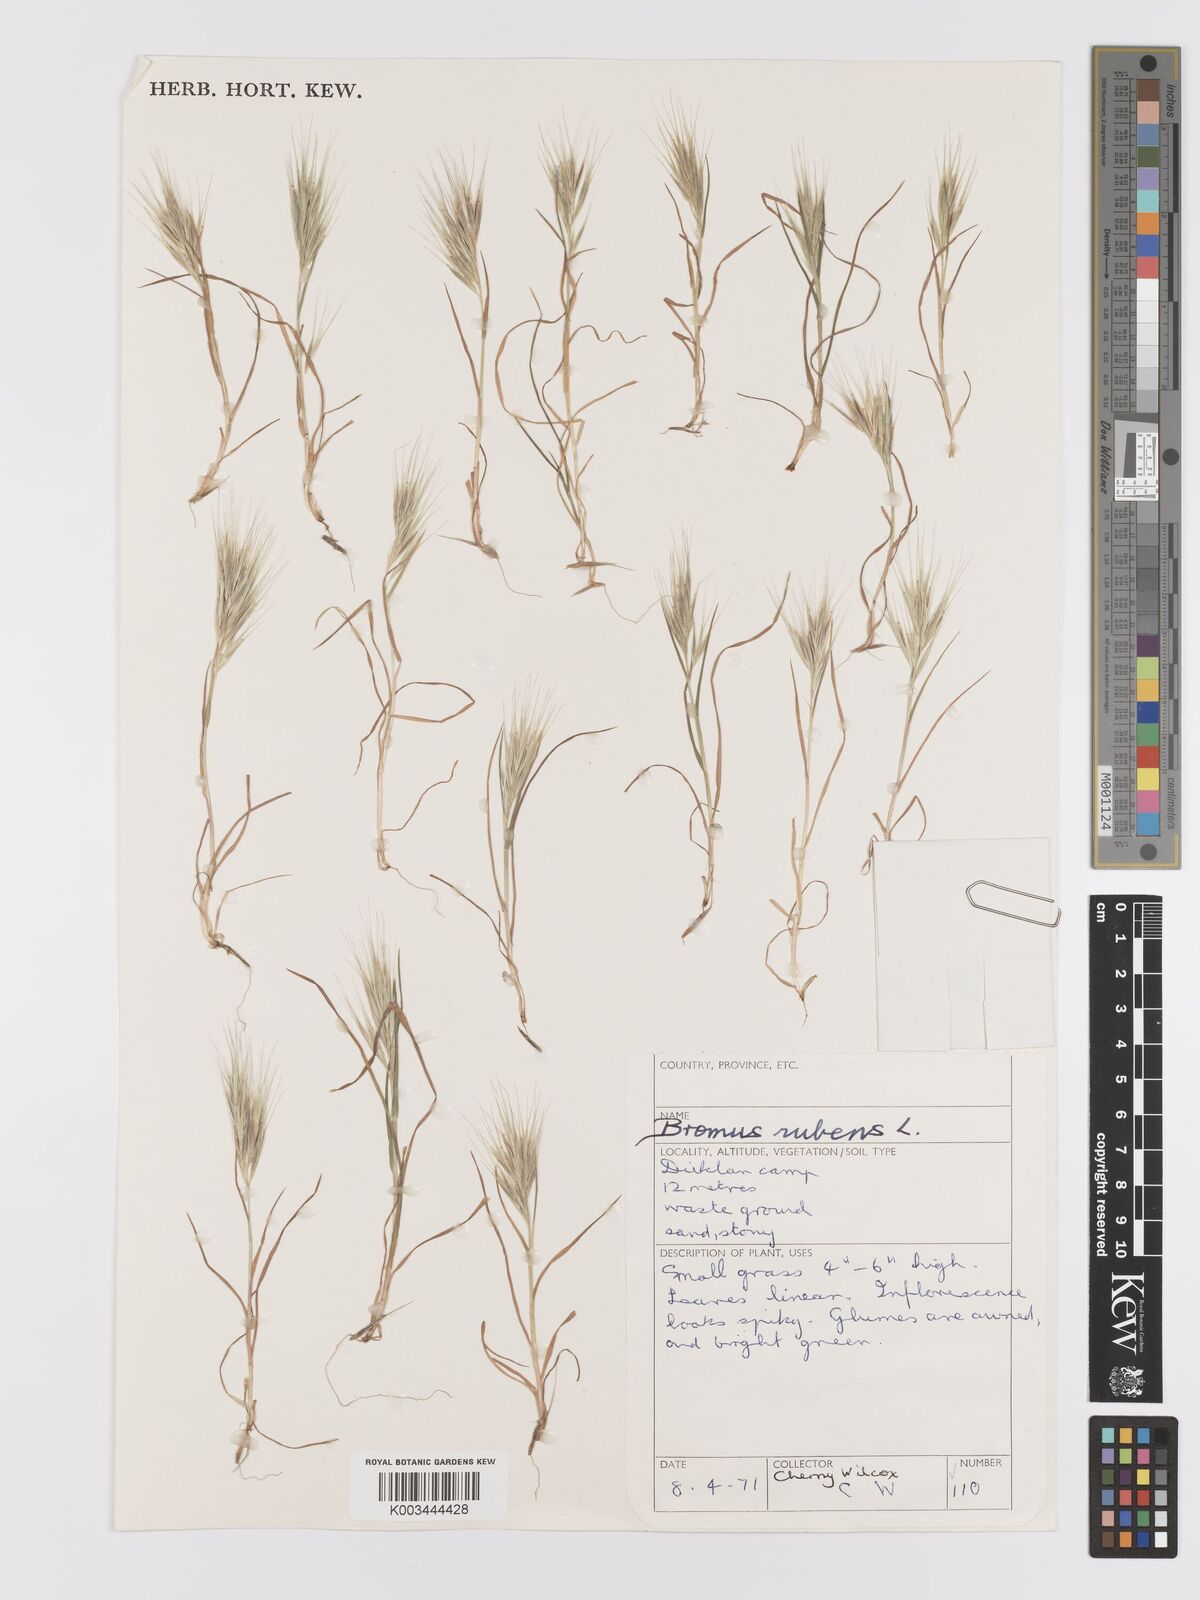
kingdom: Plantae
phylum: Tracheophyta
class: Liliopsida
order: Poales
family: Poaceae
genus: Bromus
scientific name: Bromus rubens
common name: Red brome
